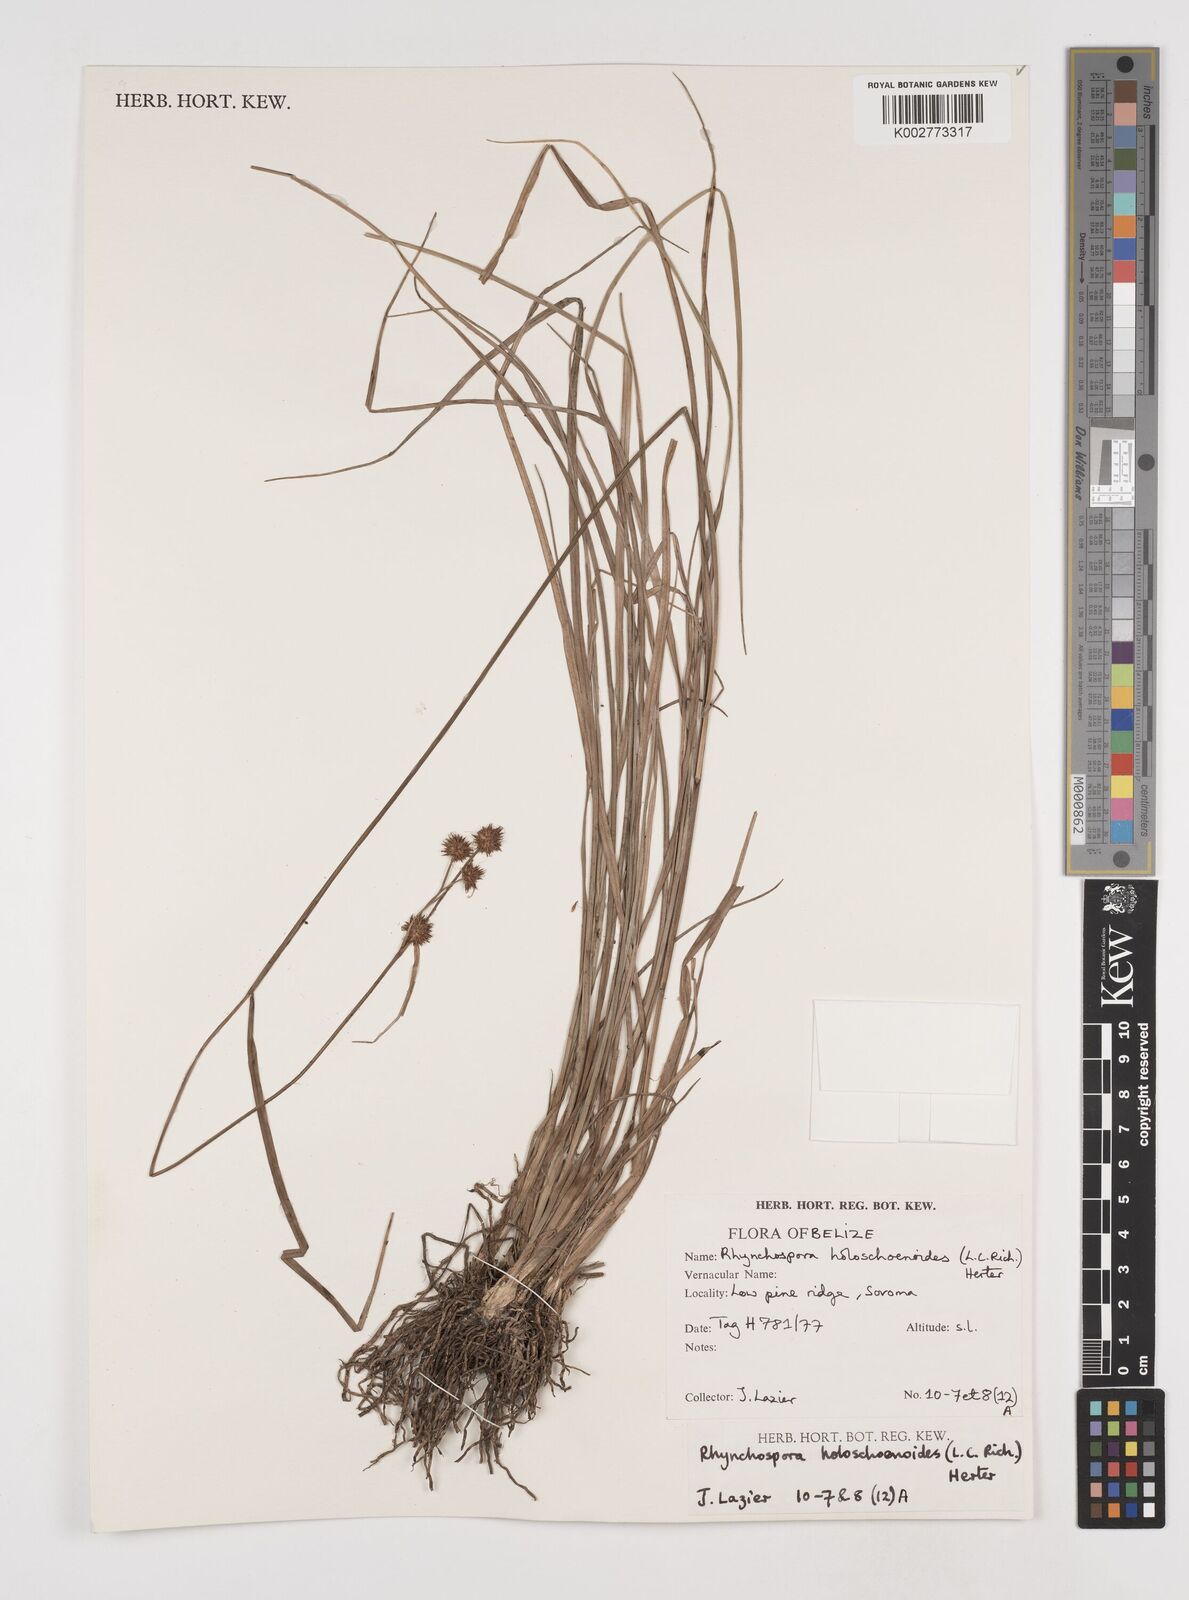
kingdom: Plantae
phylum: Tracheophyta
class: Liliopsida
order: Poales
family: Cyperaceae
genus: Rhynchospora
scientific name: Rhynchospora holoschoenoides
